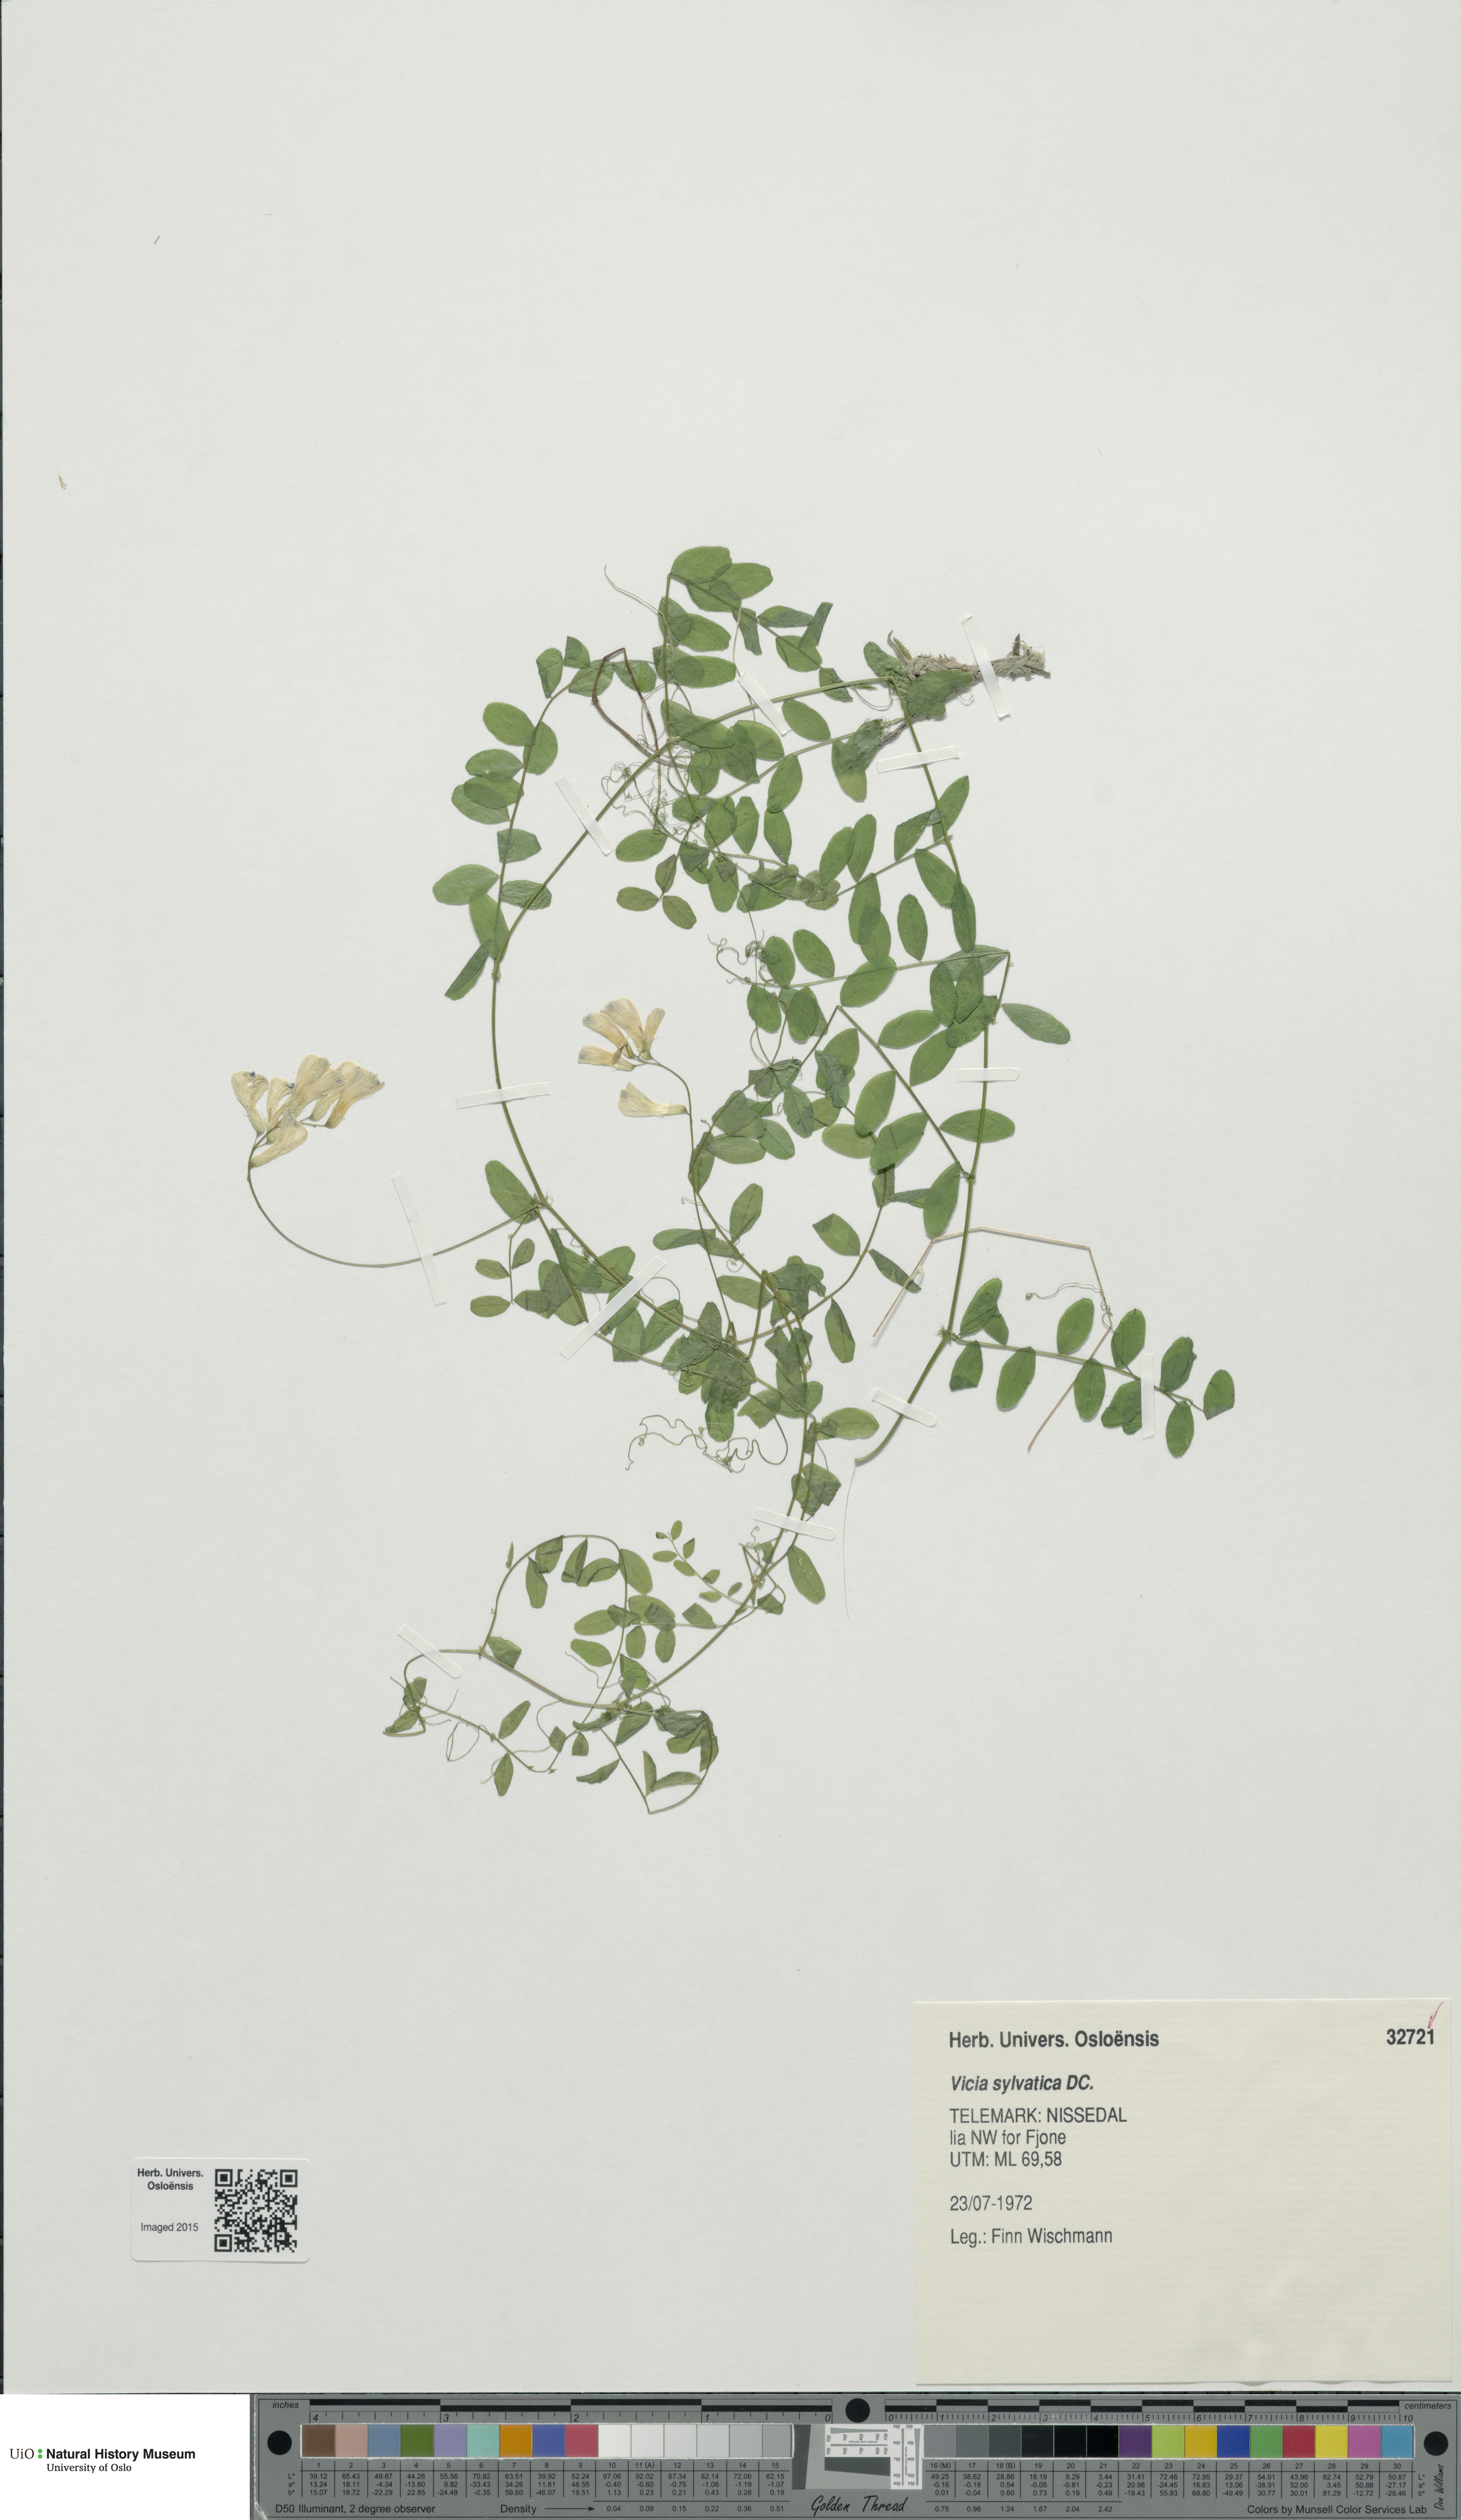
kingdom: Plantae
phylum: Tracheophyta
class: Magnoliopsida
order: Fabales
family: Fabaceae
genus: Vicia
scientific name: Vicia sylvatica
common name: Wood vetch
